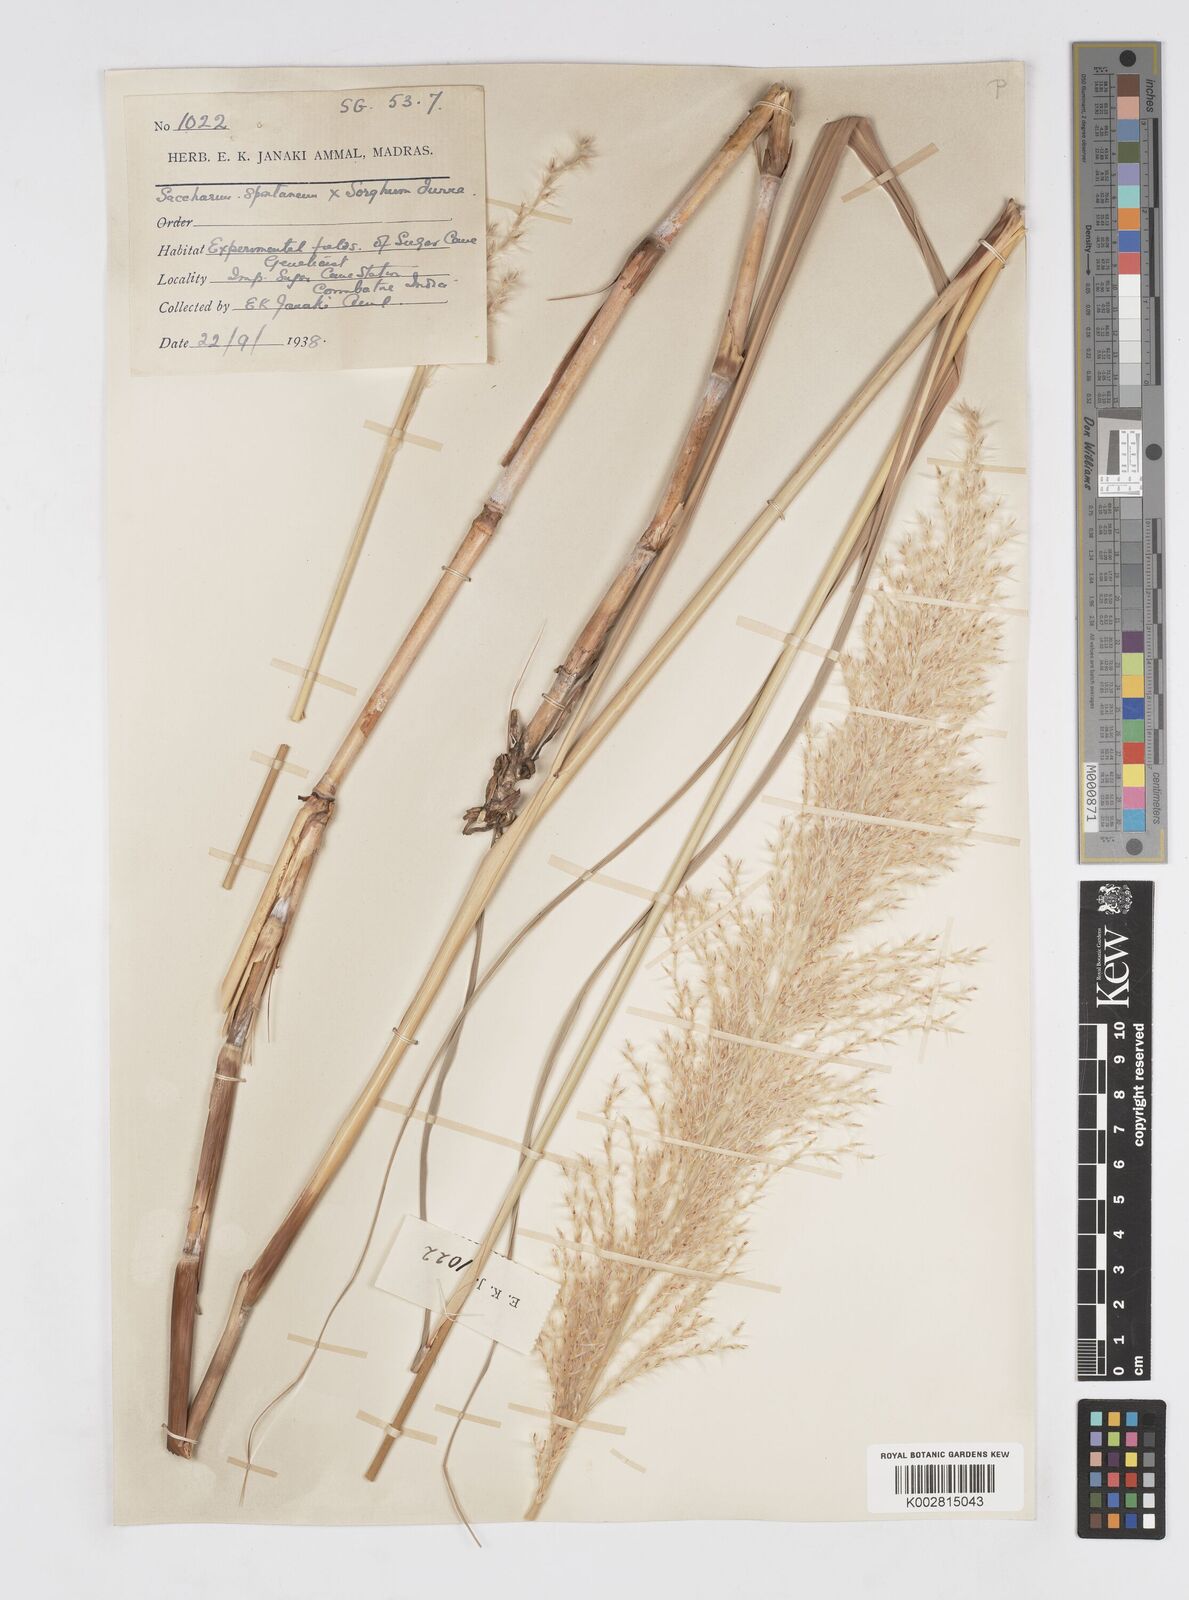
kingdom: Plantae
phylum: Tracheophyta
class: Liliopsida
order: Poales
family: Poaceae
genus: Saccharum
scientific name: Saccharum
